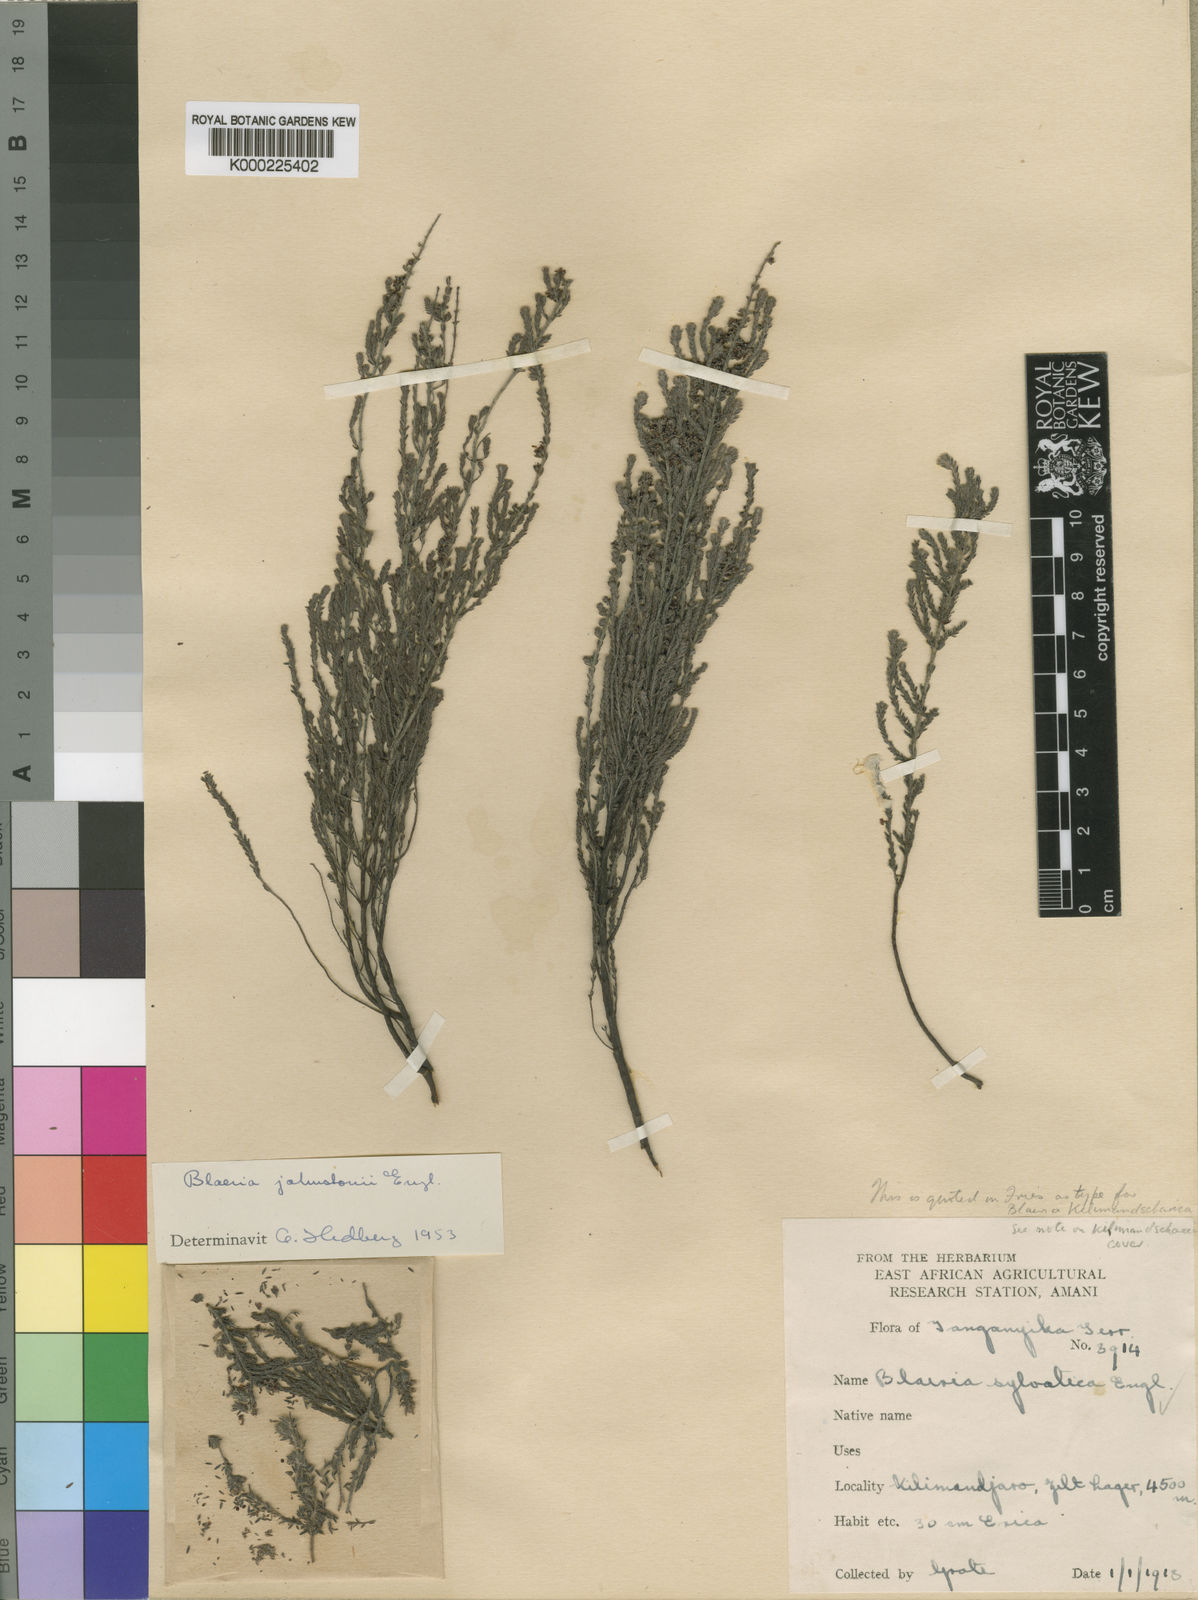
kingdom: Plantae
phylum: Tracheophyta
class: Magnoliopsida
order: Ericales
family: Ericaceae
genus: Erica
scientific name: Erica silvatica
